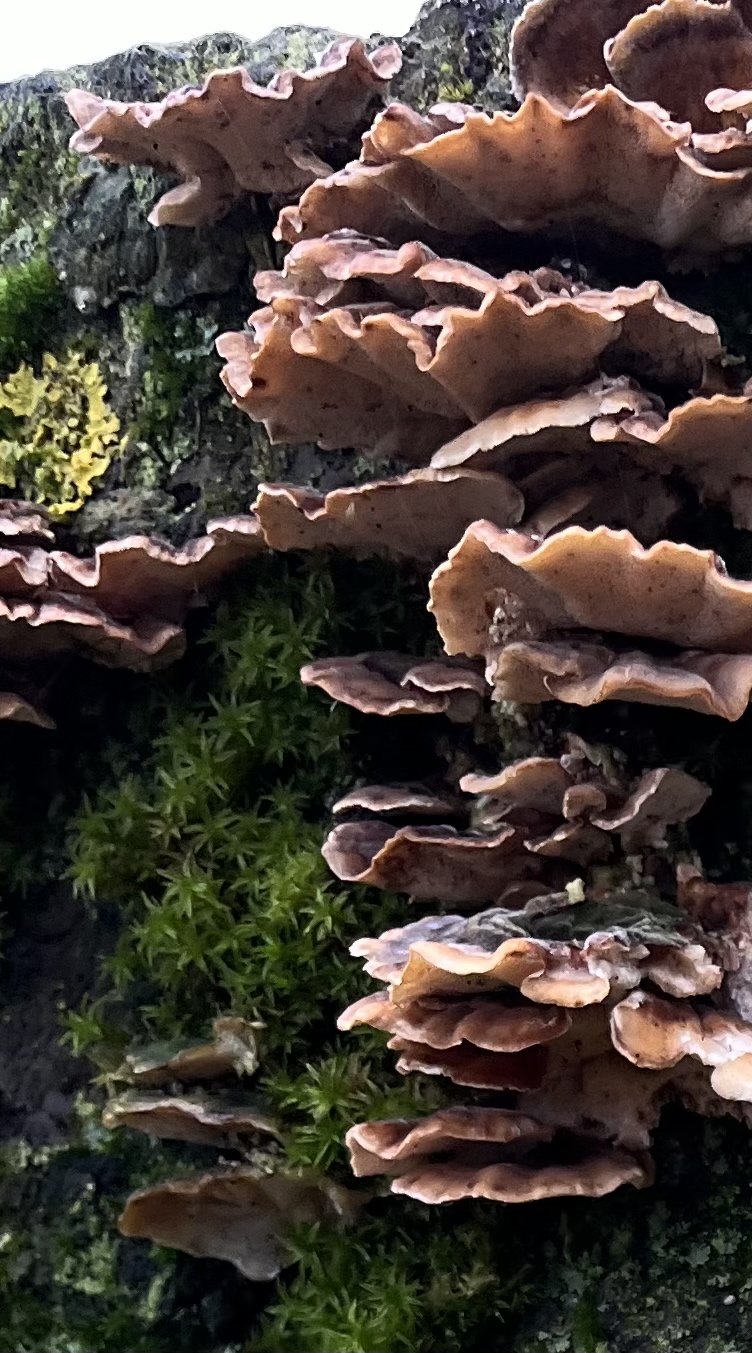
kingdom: Fungi
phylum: Basidiomycota
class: Agaricomycetes
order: Polyporales
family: Polyporaceae
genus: Trametes
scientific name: Trametes versicolor
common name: broget læderporesvamp
